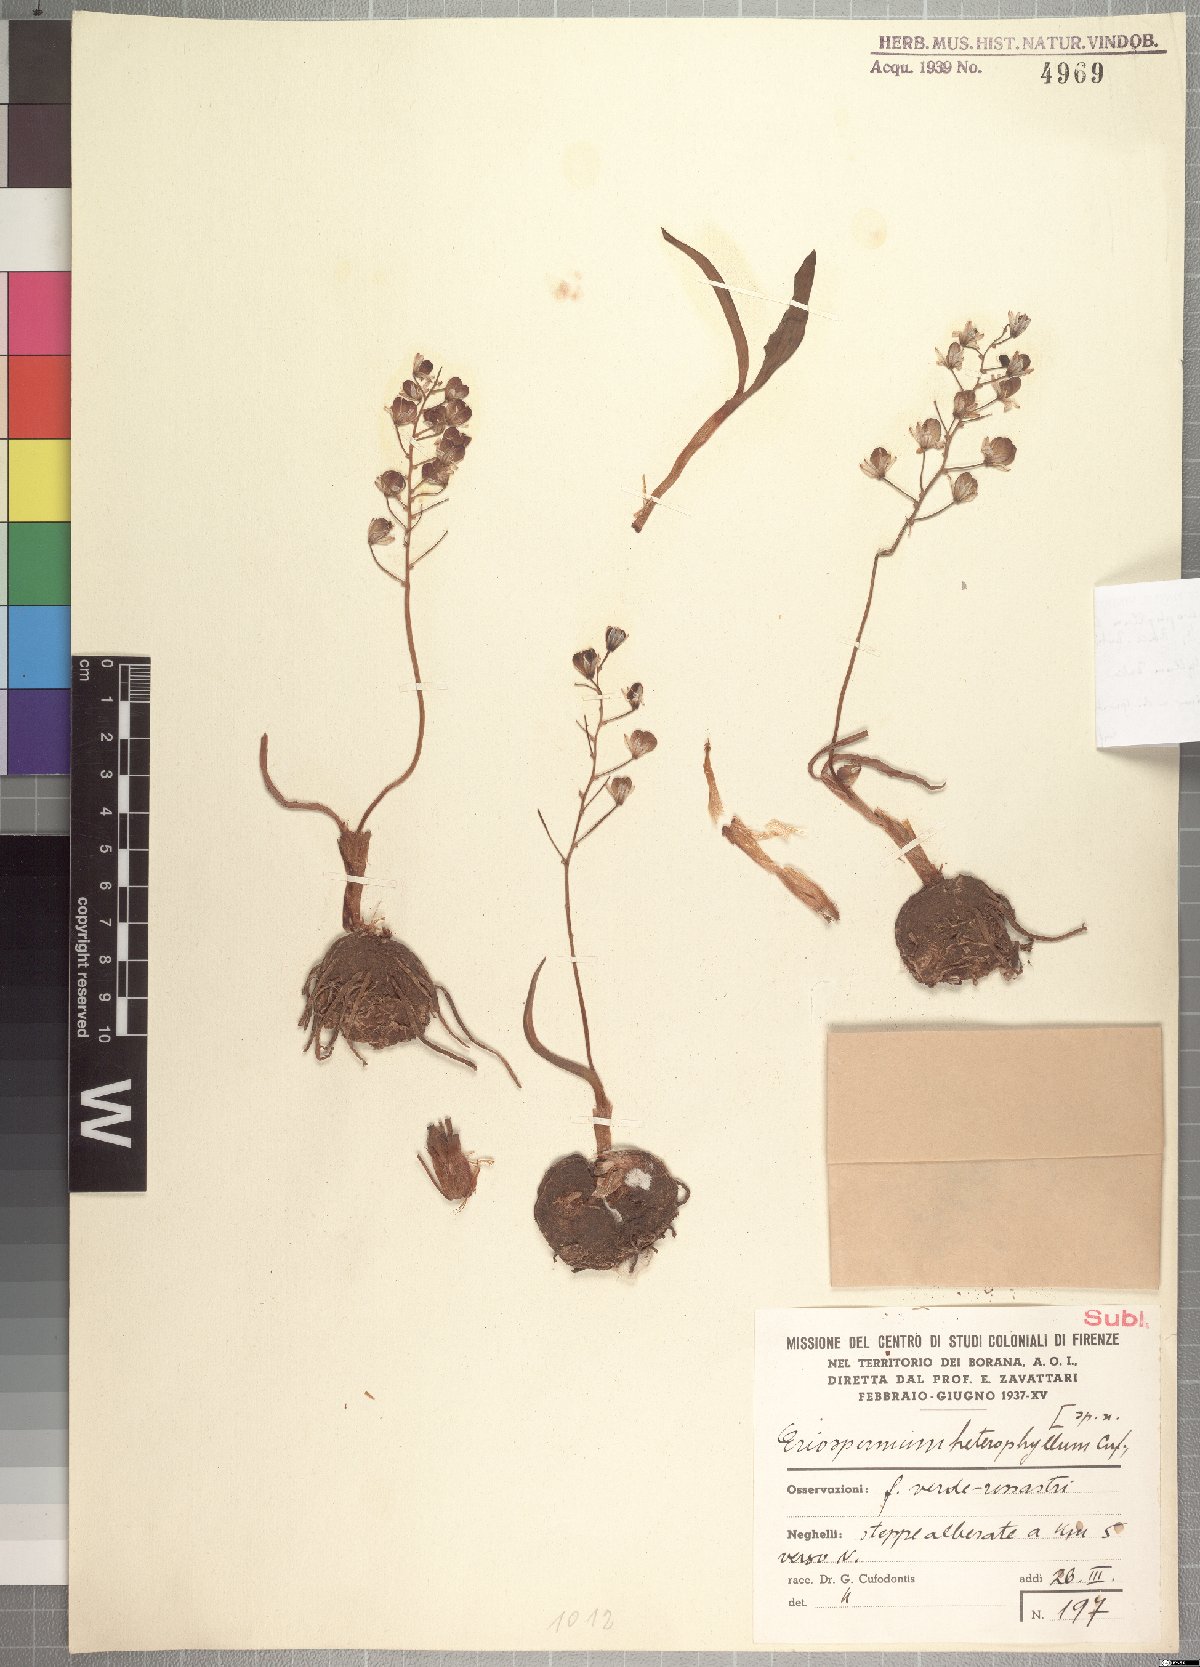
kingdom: Plantae
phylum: Tracheophyta
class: Liliopsida
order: Asparagales
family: Asparagaceae
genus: Eriospermum
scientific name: Eriospermum triphyllum
